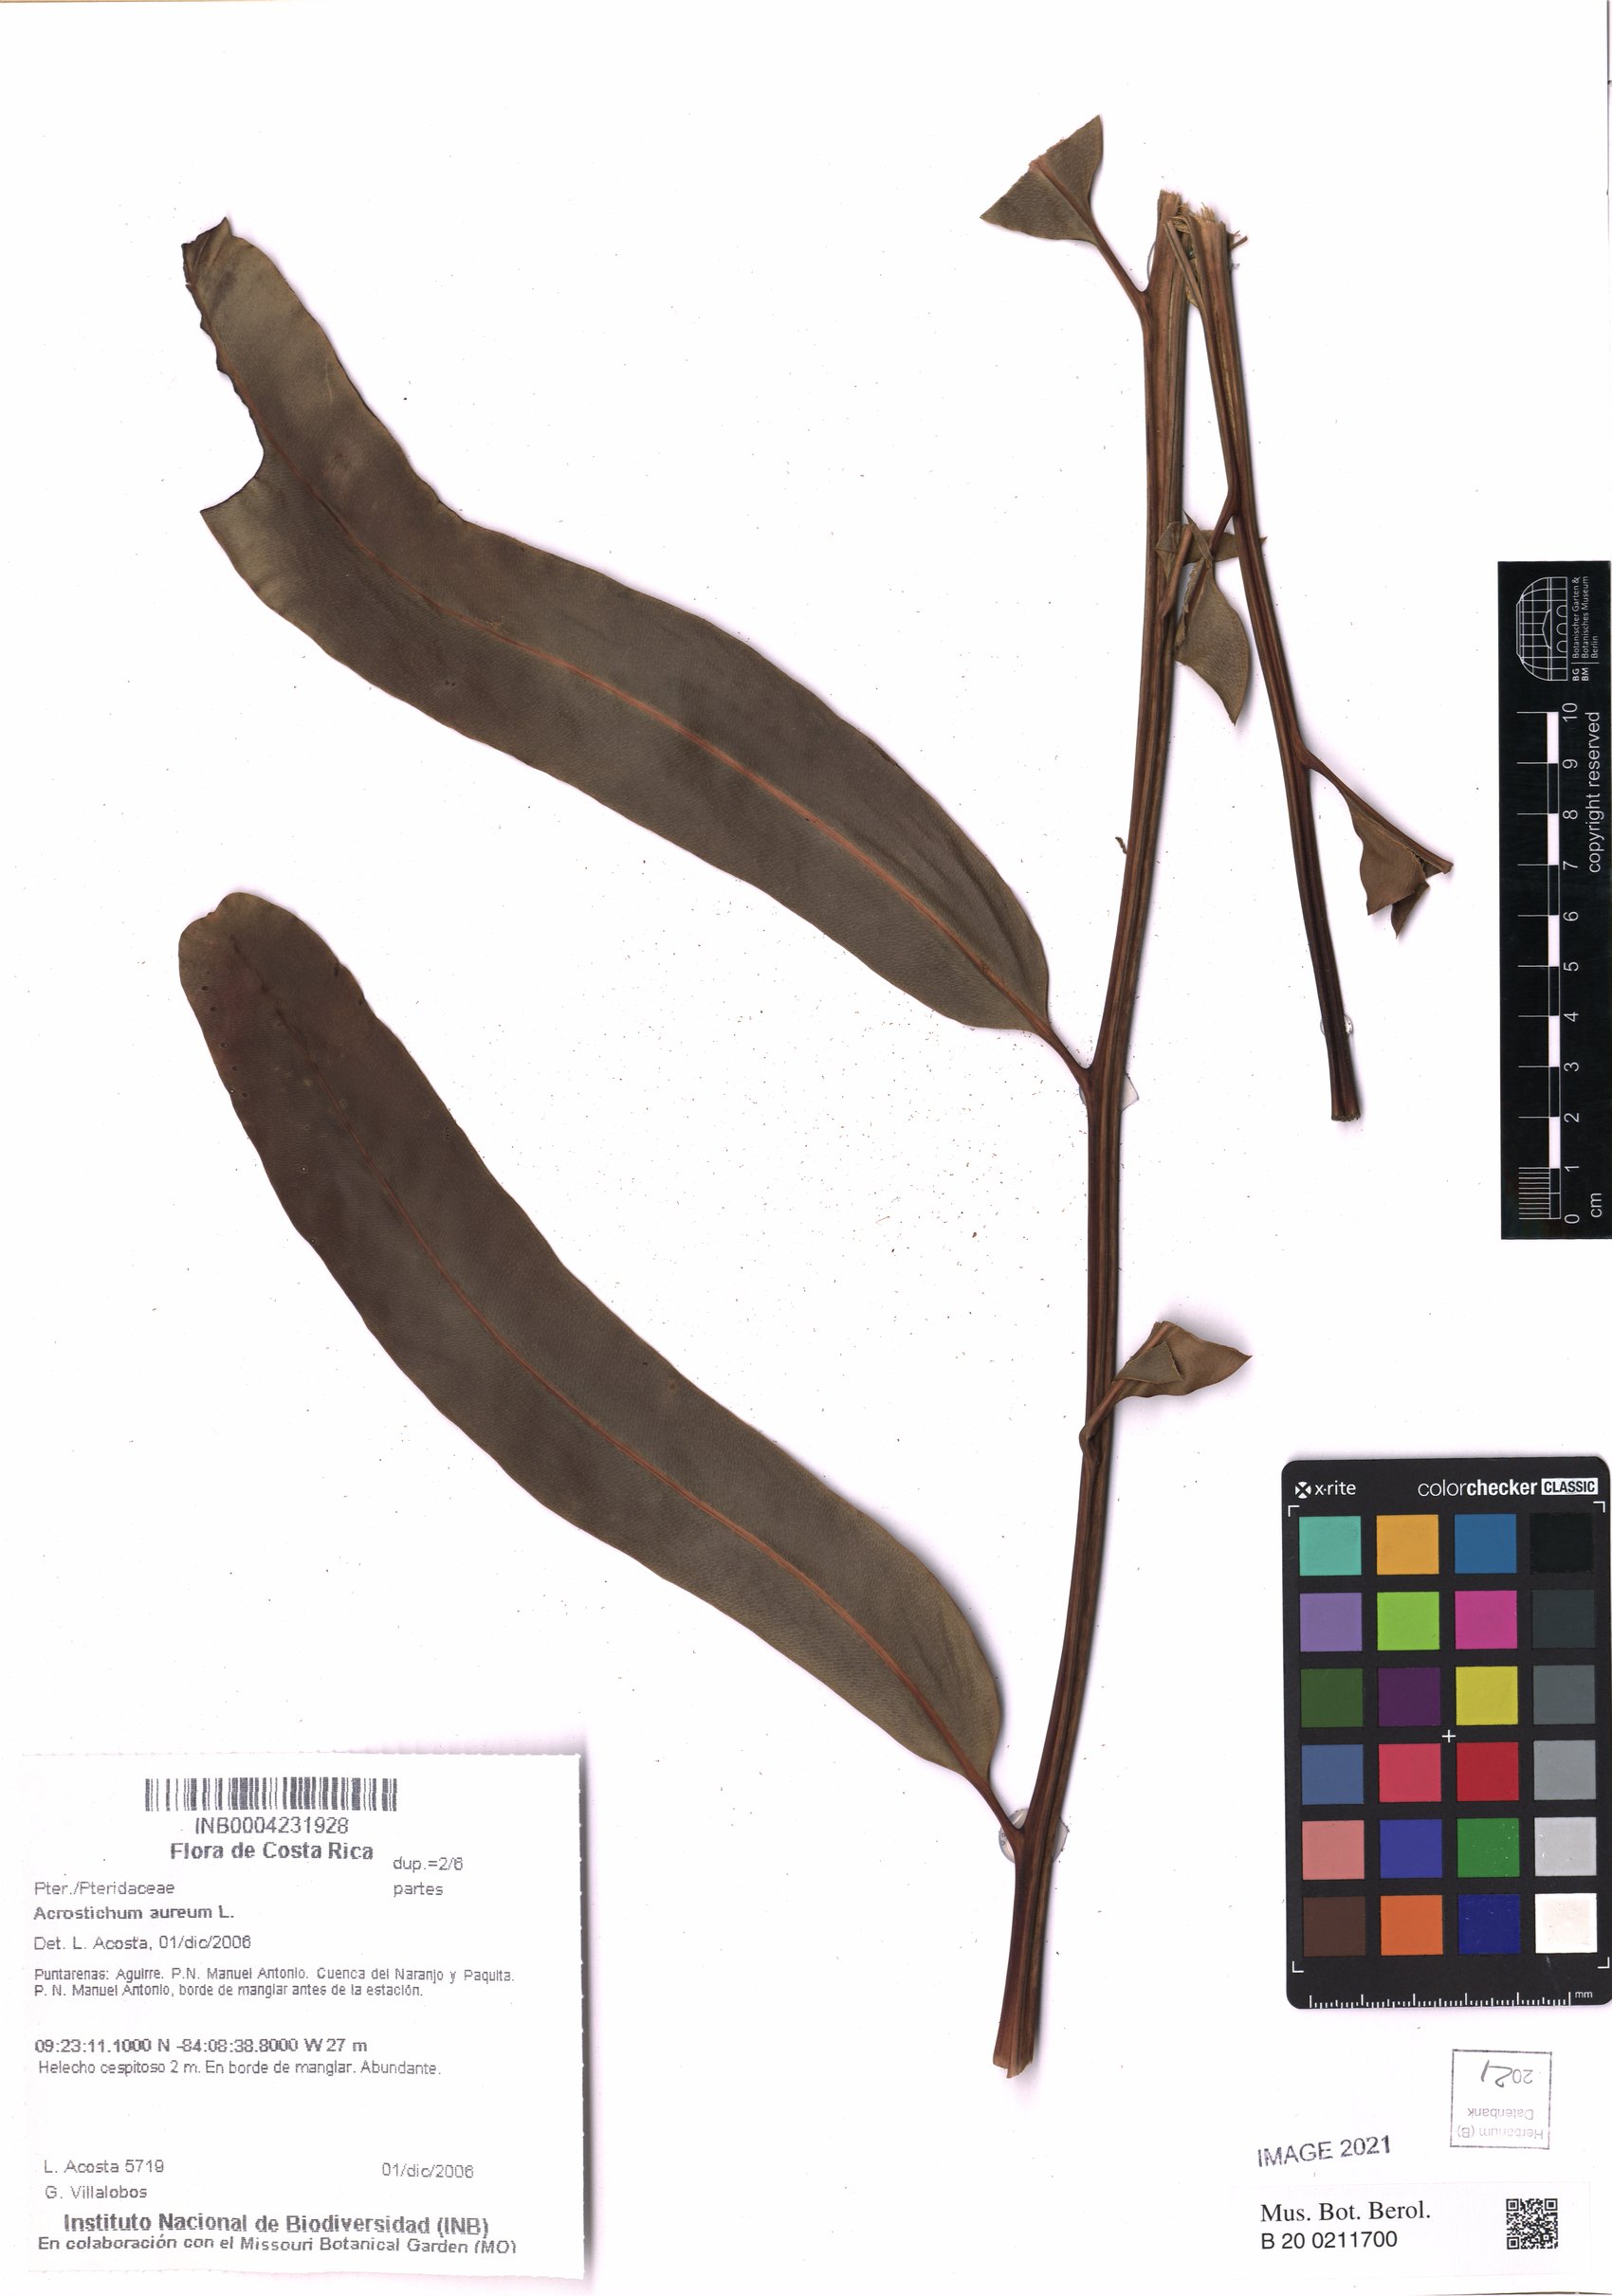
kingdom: Plantae
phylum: Tracheophyta
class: Polypodiopsida
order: Polypodiales
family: Pteridaceae
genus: Acrostichum
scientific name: Acrostichum aureum
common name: Leather fern
